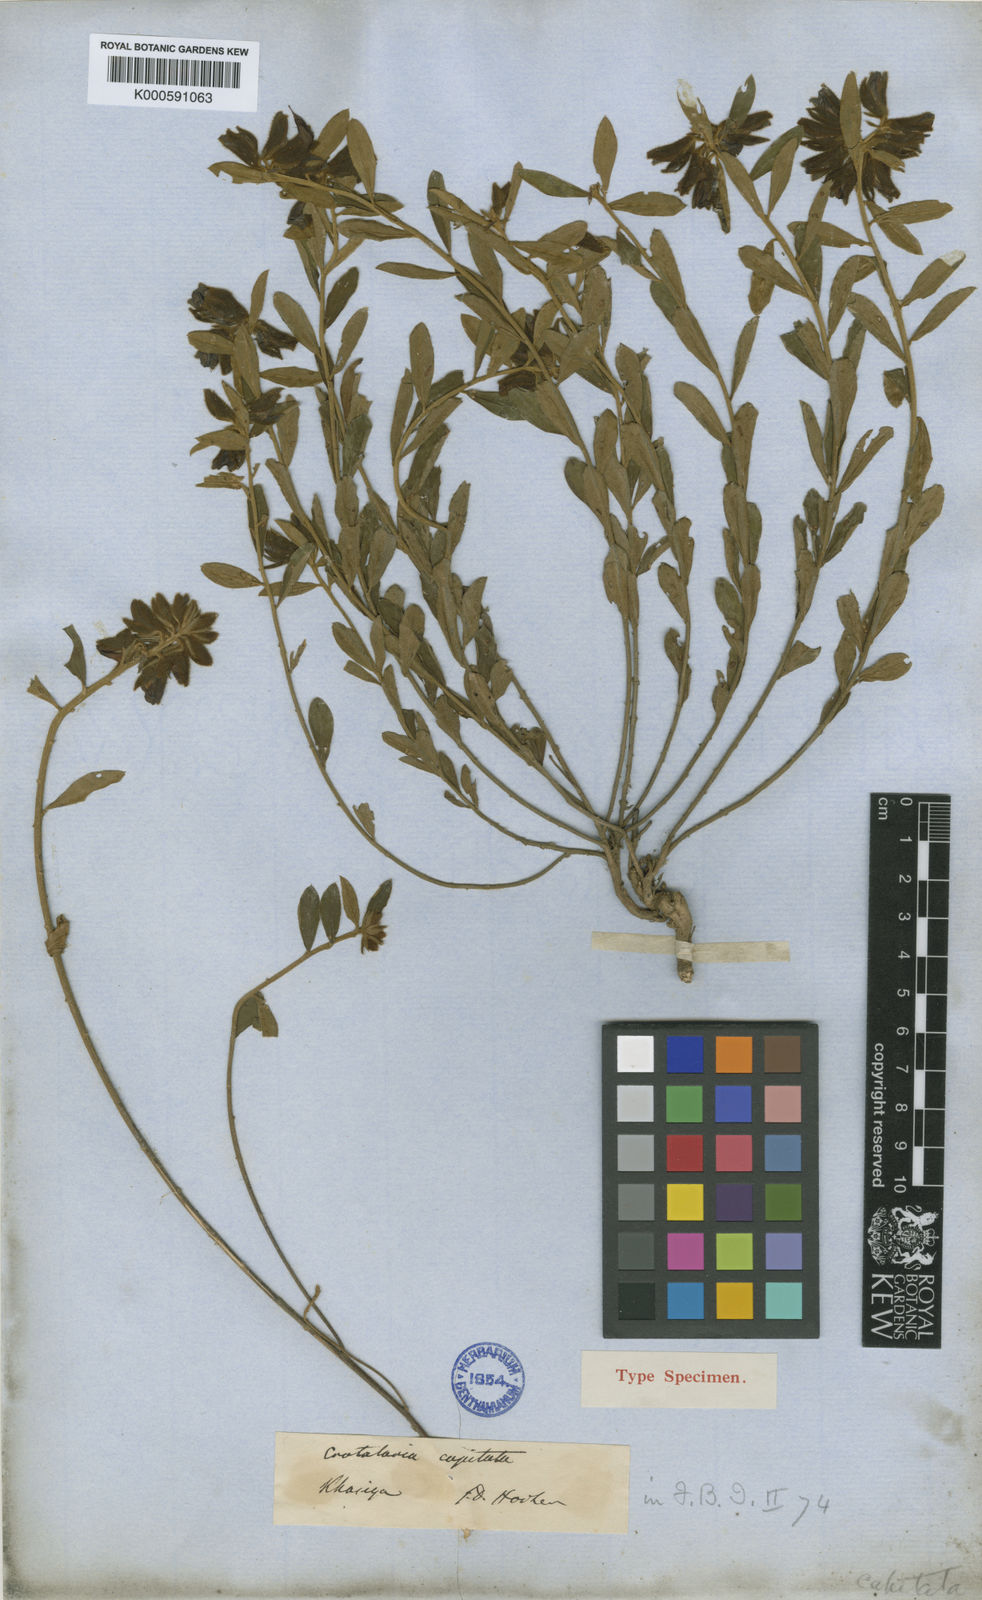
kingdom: Plantae
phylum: Tracheophyta
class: Magnoliopsida
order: Fabales
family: Fabaceae
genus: Crotalaria
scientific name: Crotalaria khasiana
